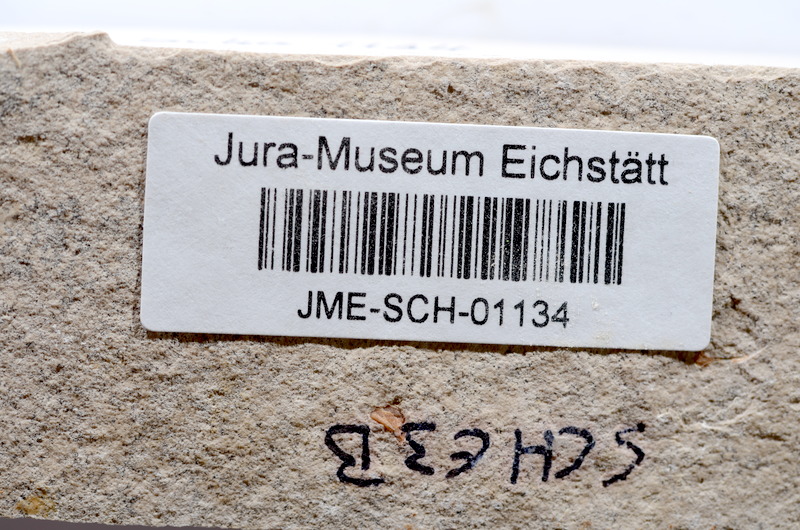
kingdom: Animalia
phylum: Chordata
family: Ascalaboidae
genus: Tharsis
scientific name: Tharsis dubius
